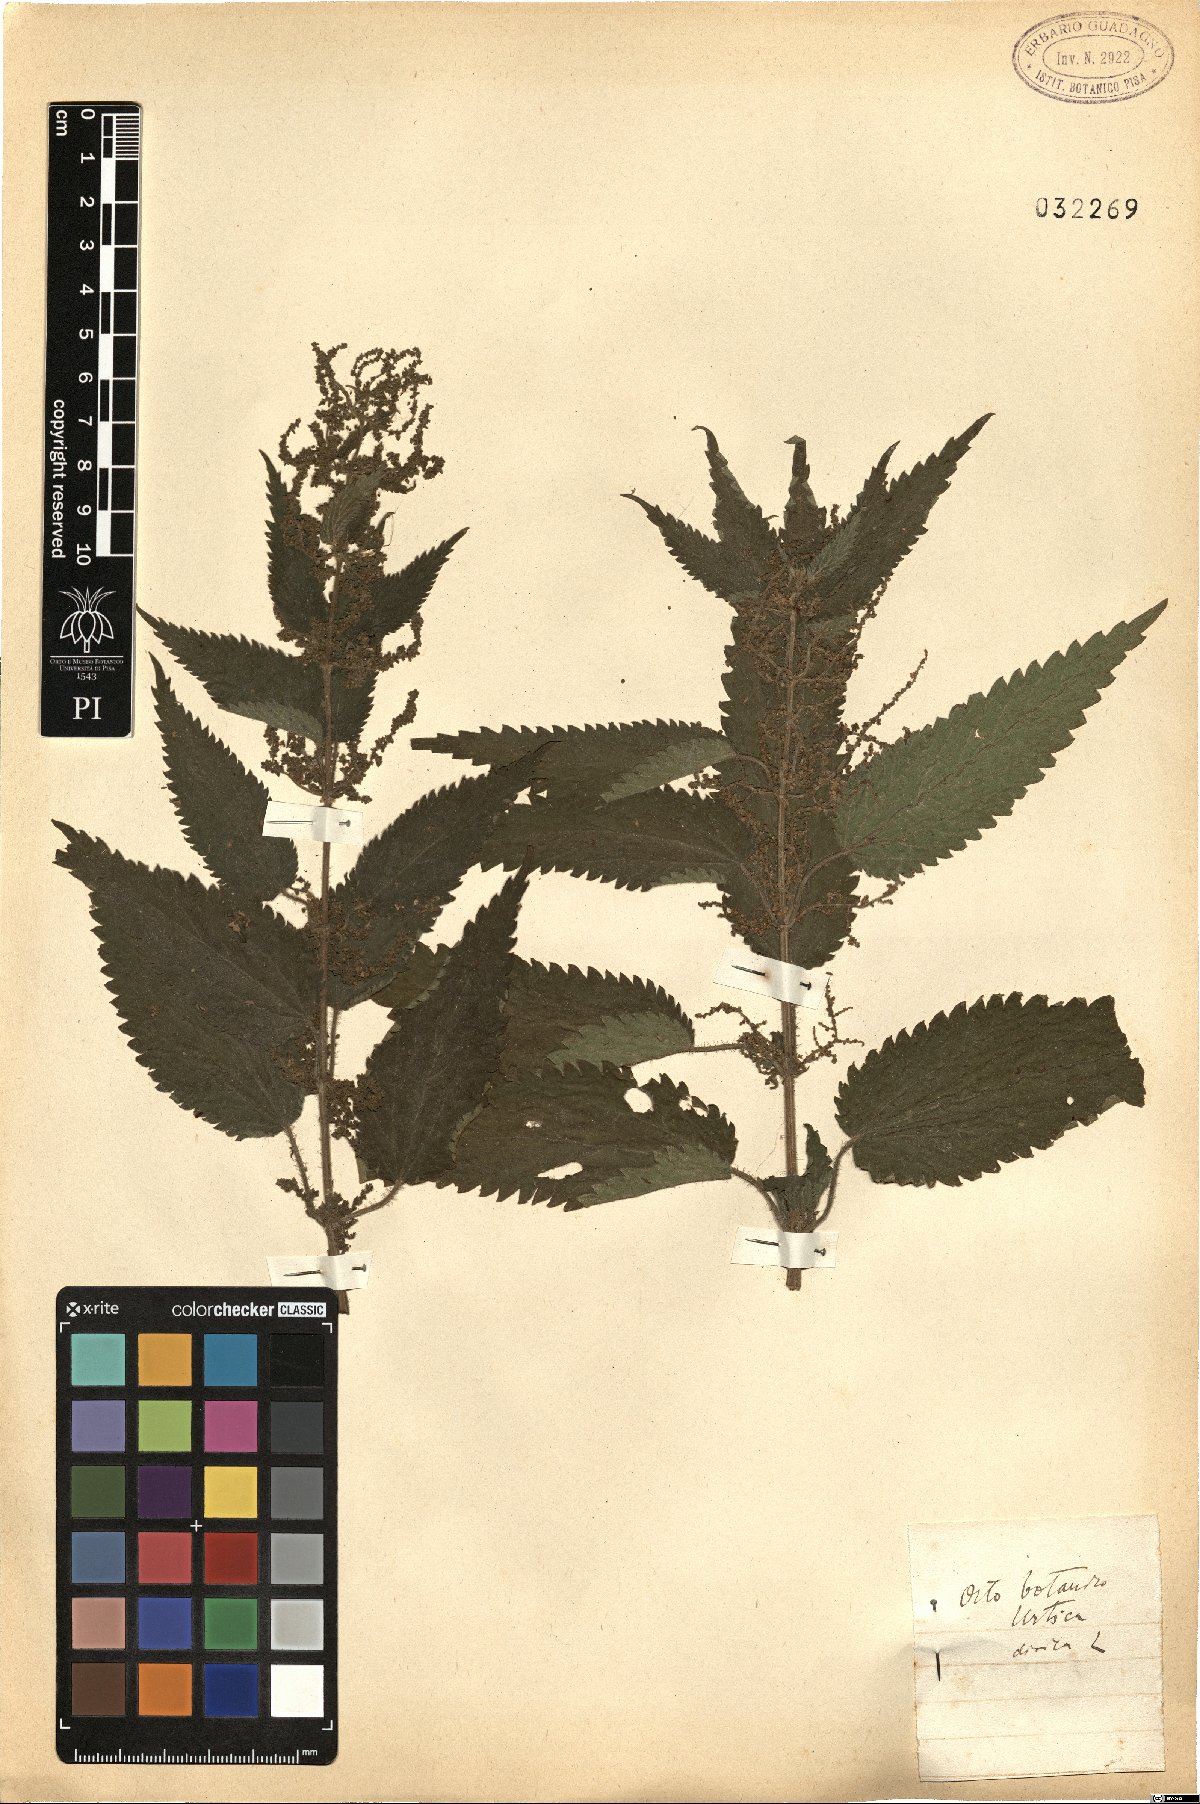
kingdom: Plantae
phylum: Tracheophyta
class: Magnoliopsida
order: Rosales
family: Urticaceae
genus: Urtica
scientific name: Urtica dioica
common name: Common nettle
